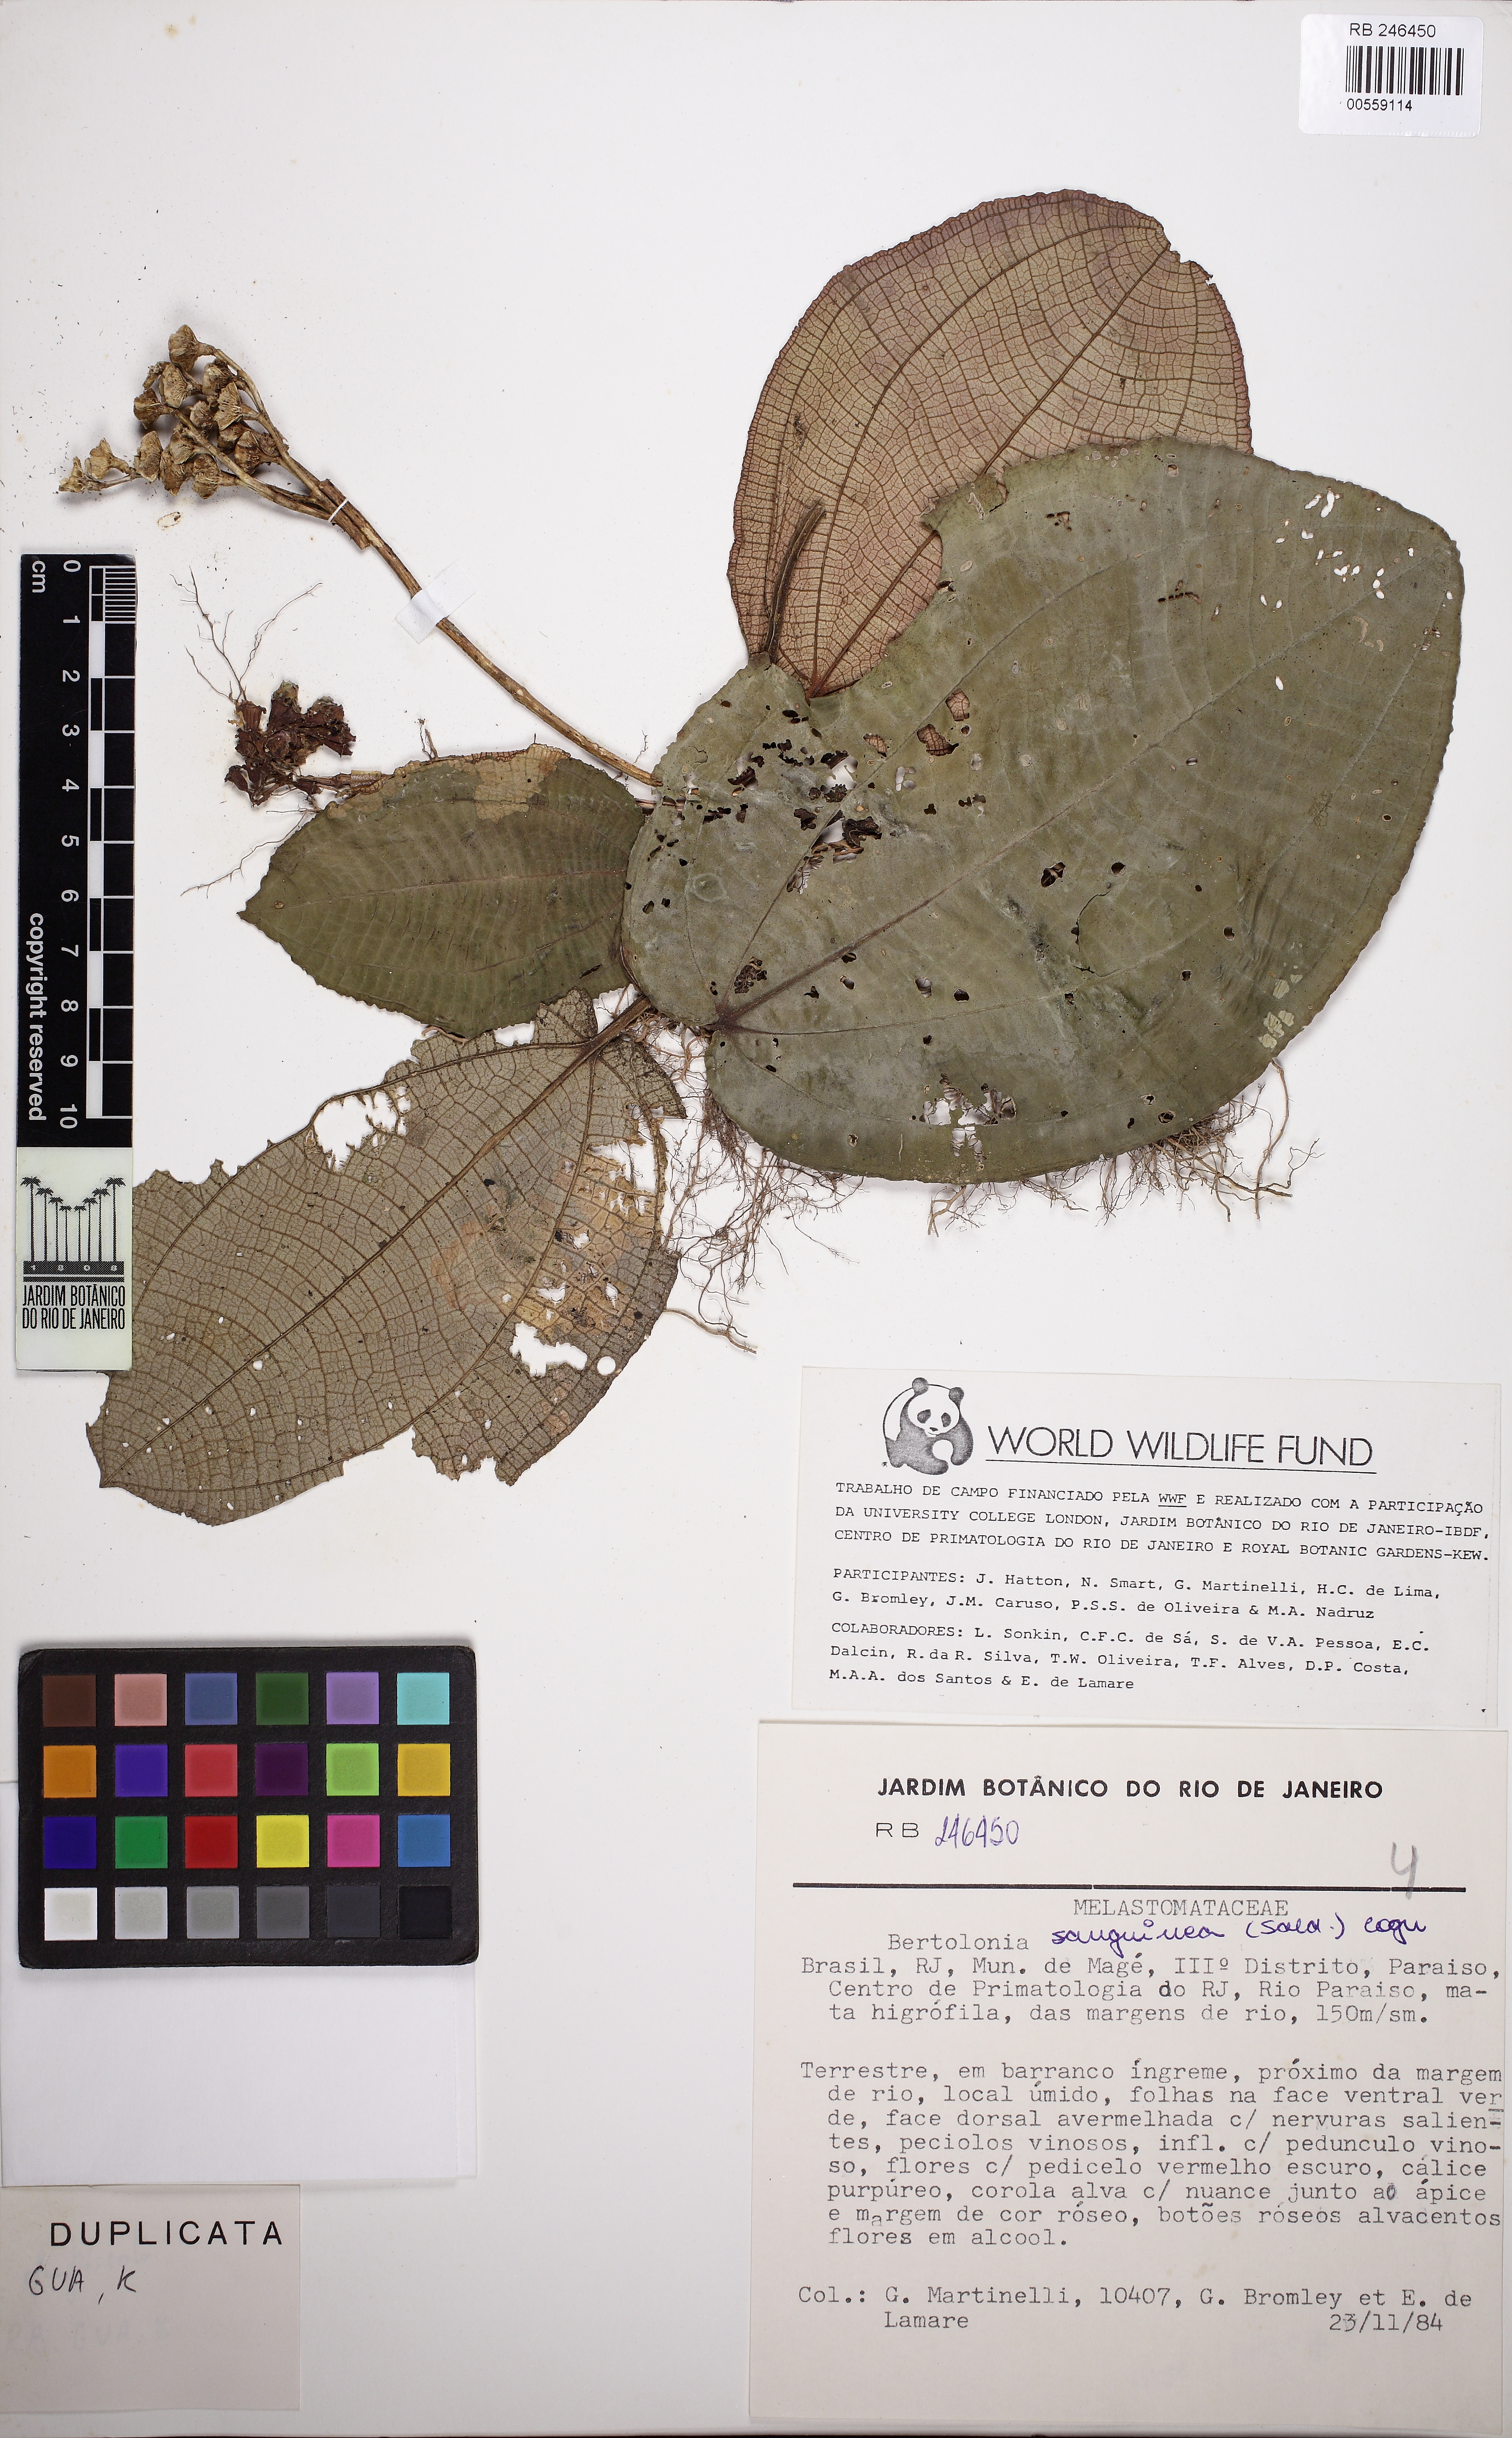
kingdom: Plantae
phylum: Tracheophyta
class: Magnoliopsida
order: Myrtales
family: Melastomataceae
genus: Bertolonia
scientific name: Bertolonia sanguinea
